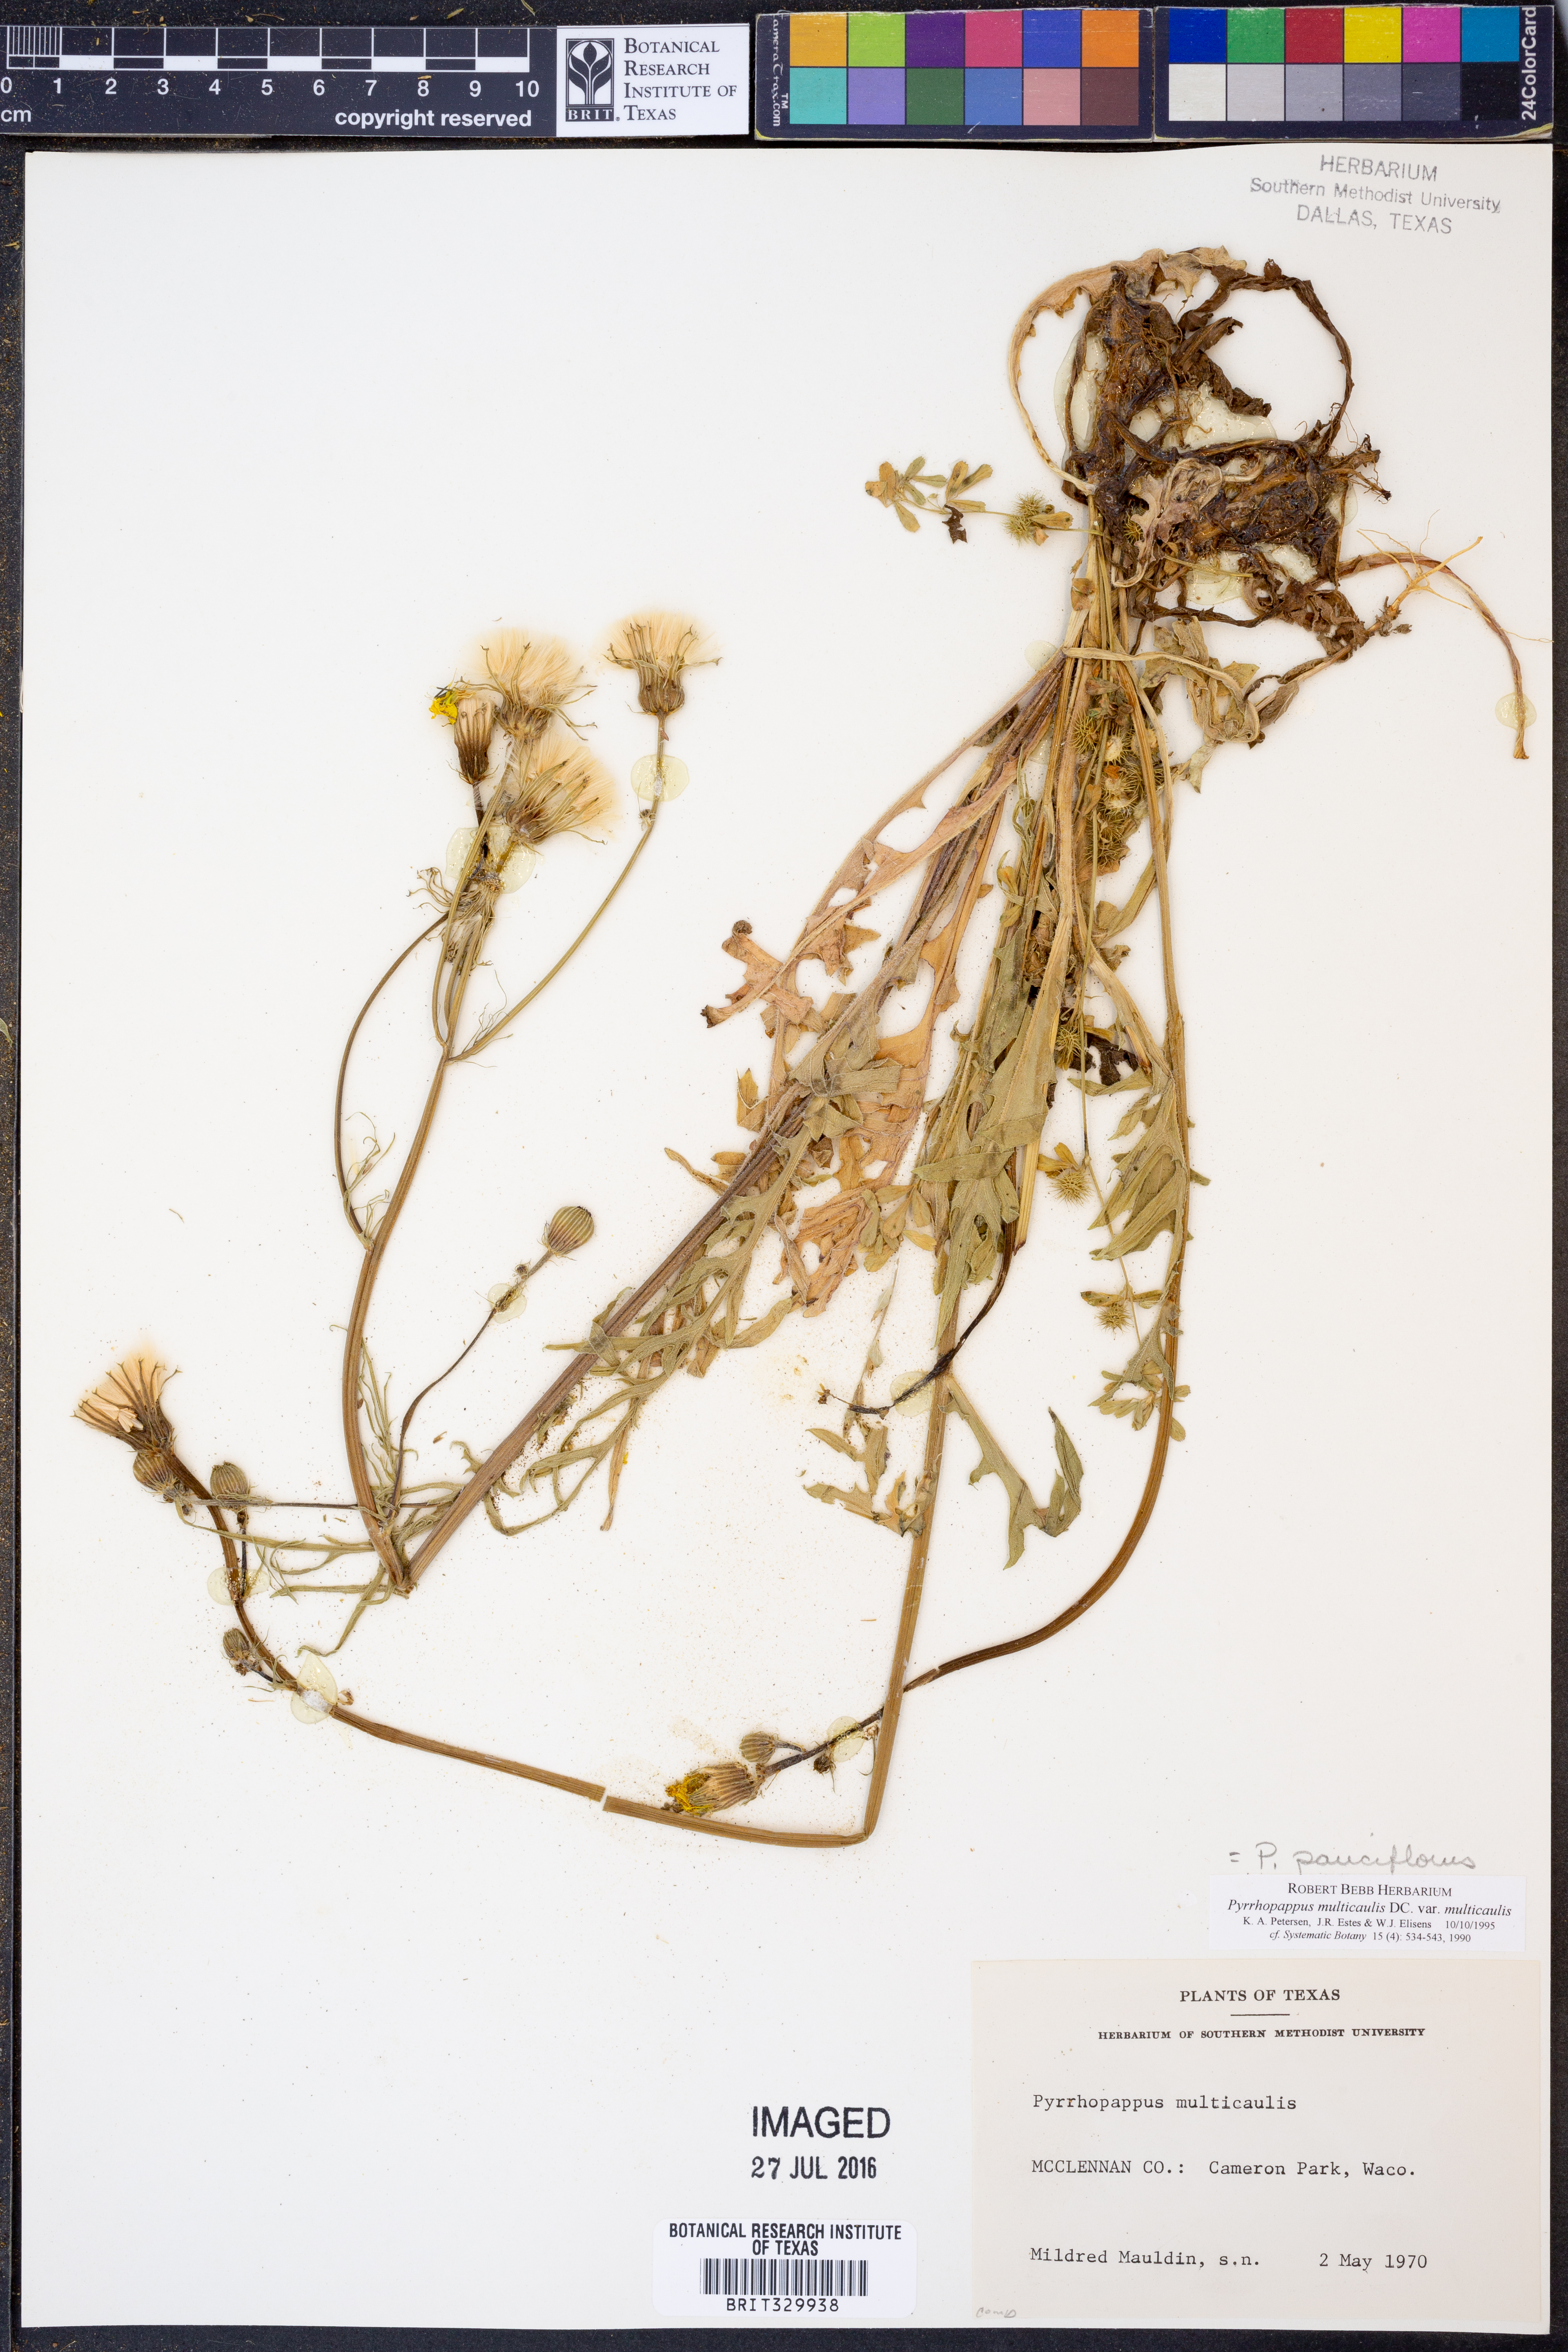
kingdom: Plantae
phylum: Tracheophyta
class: Magnoliopsida
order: Asterales
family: Asteraceae
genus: Pyrrhopappus
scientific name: Pyrrhopappus pauciflorus
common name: Texas false dandelion
